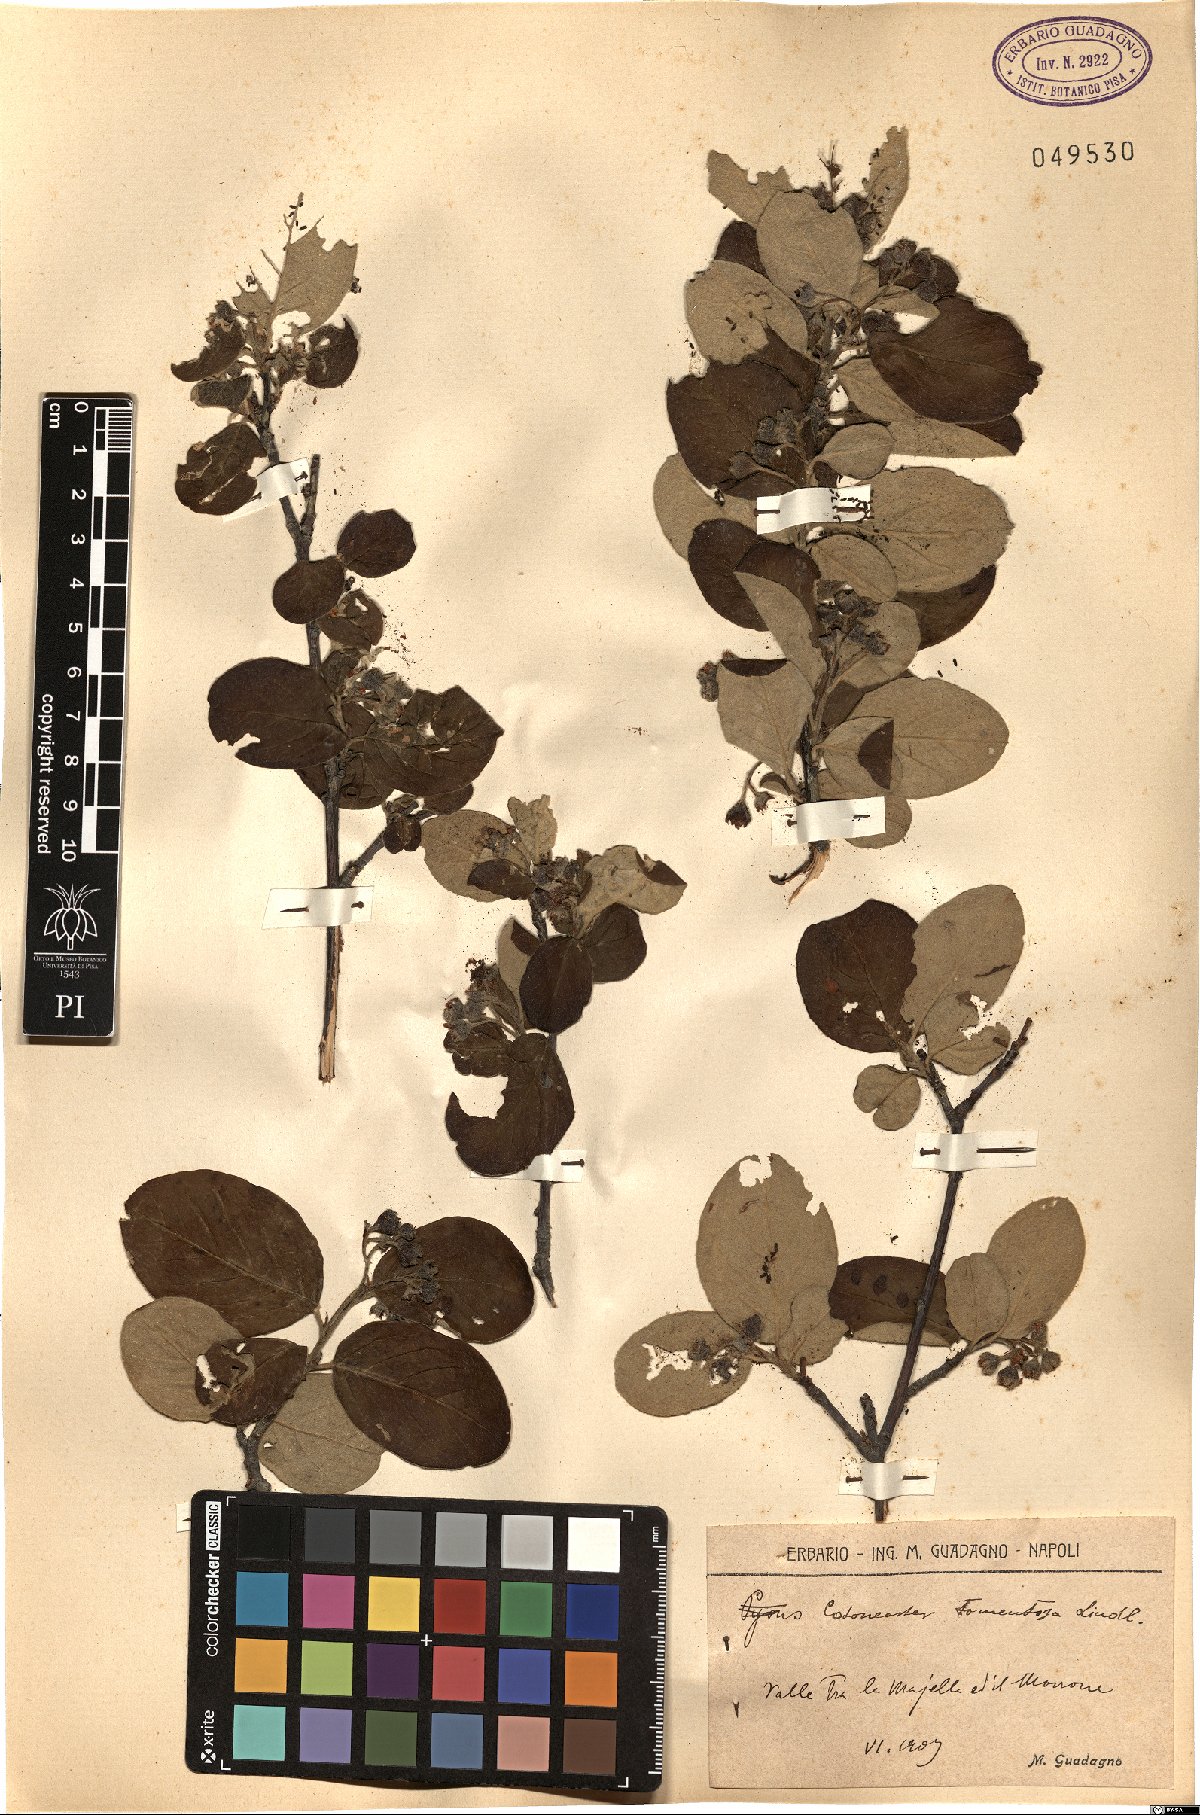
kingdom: Plantae
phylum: Tracheophyta
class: Magnoliopsida
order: Rosales
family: Rosaceae
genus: Cotoneaster
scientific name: Cotoneaster tomentosus
